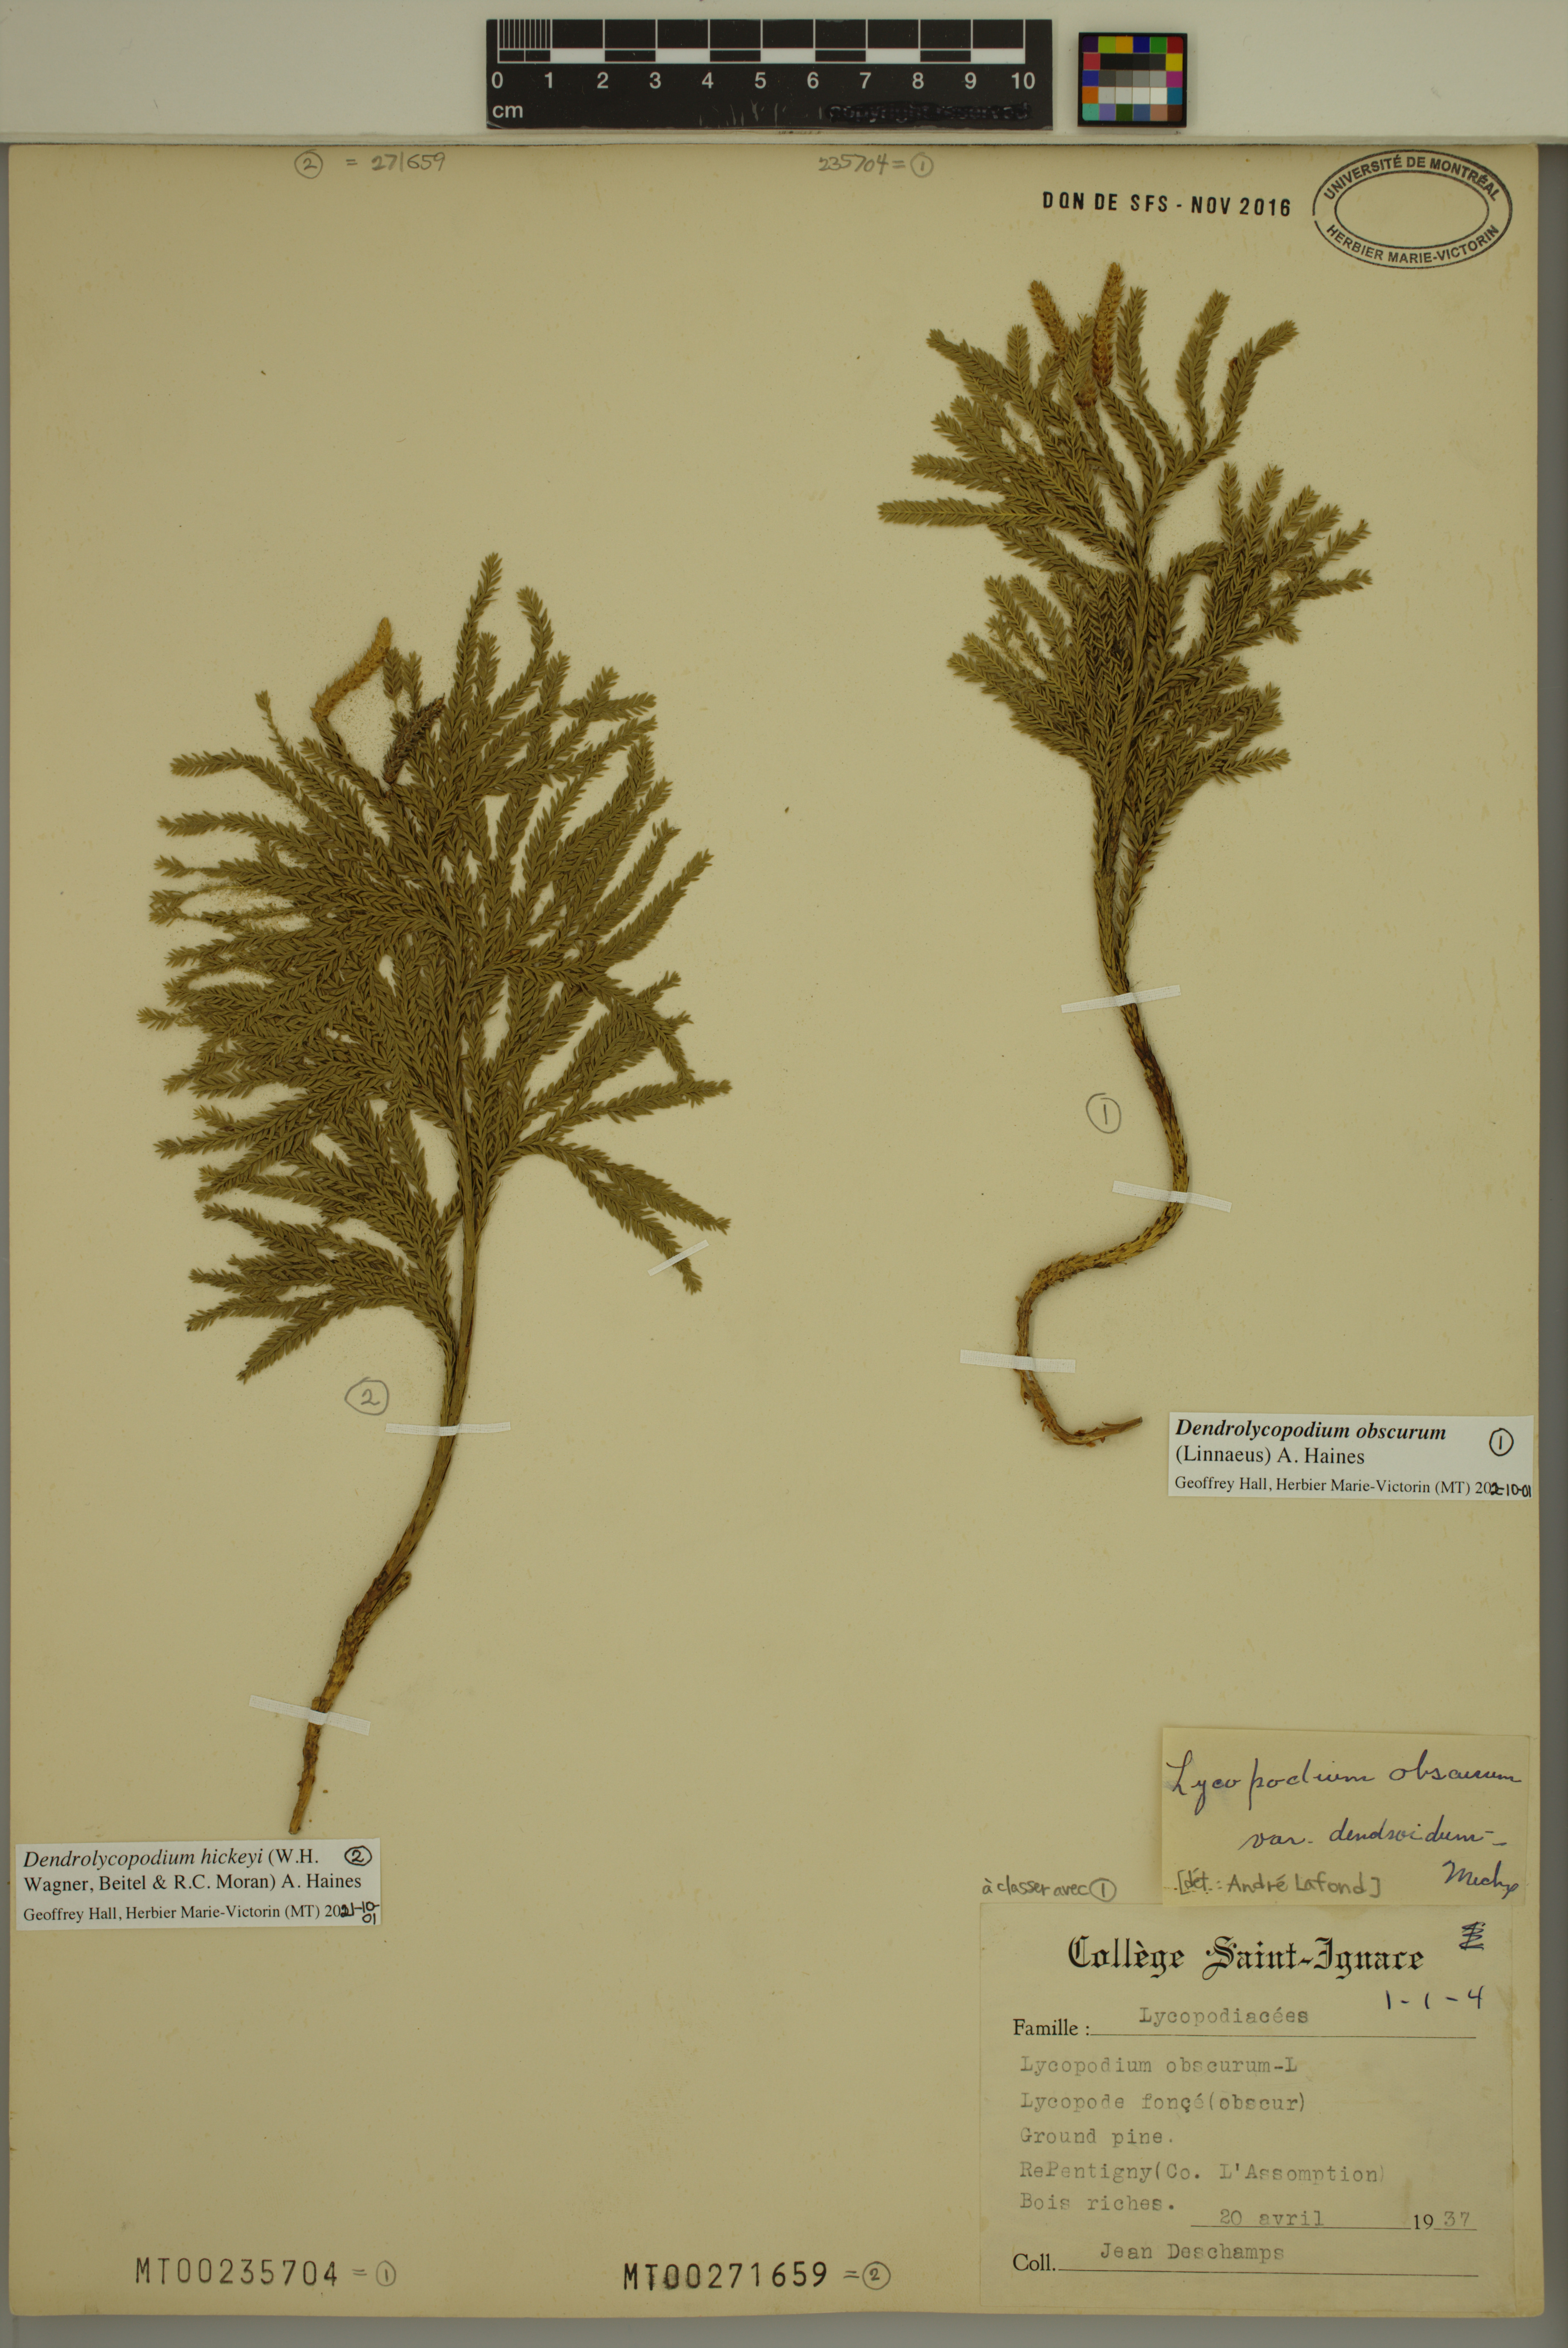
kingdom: Plantae
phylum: Tracheophyta
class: Lycopodiopsida
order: Lycopodiales
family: Lycopodiaceae
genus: Dendrolycopodium
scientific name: Dendrolycopodium obscurum
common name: Common ground-pine
